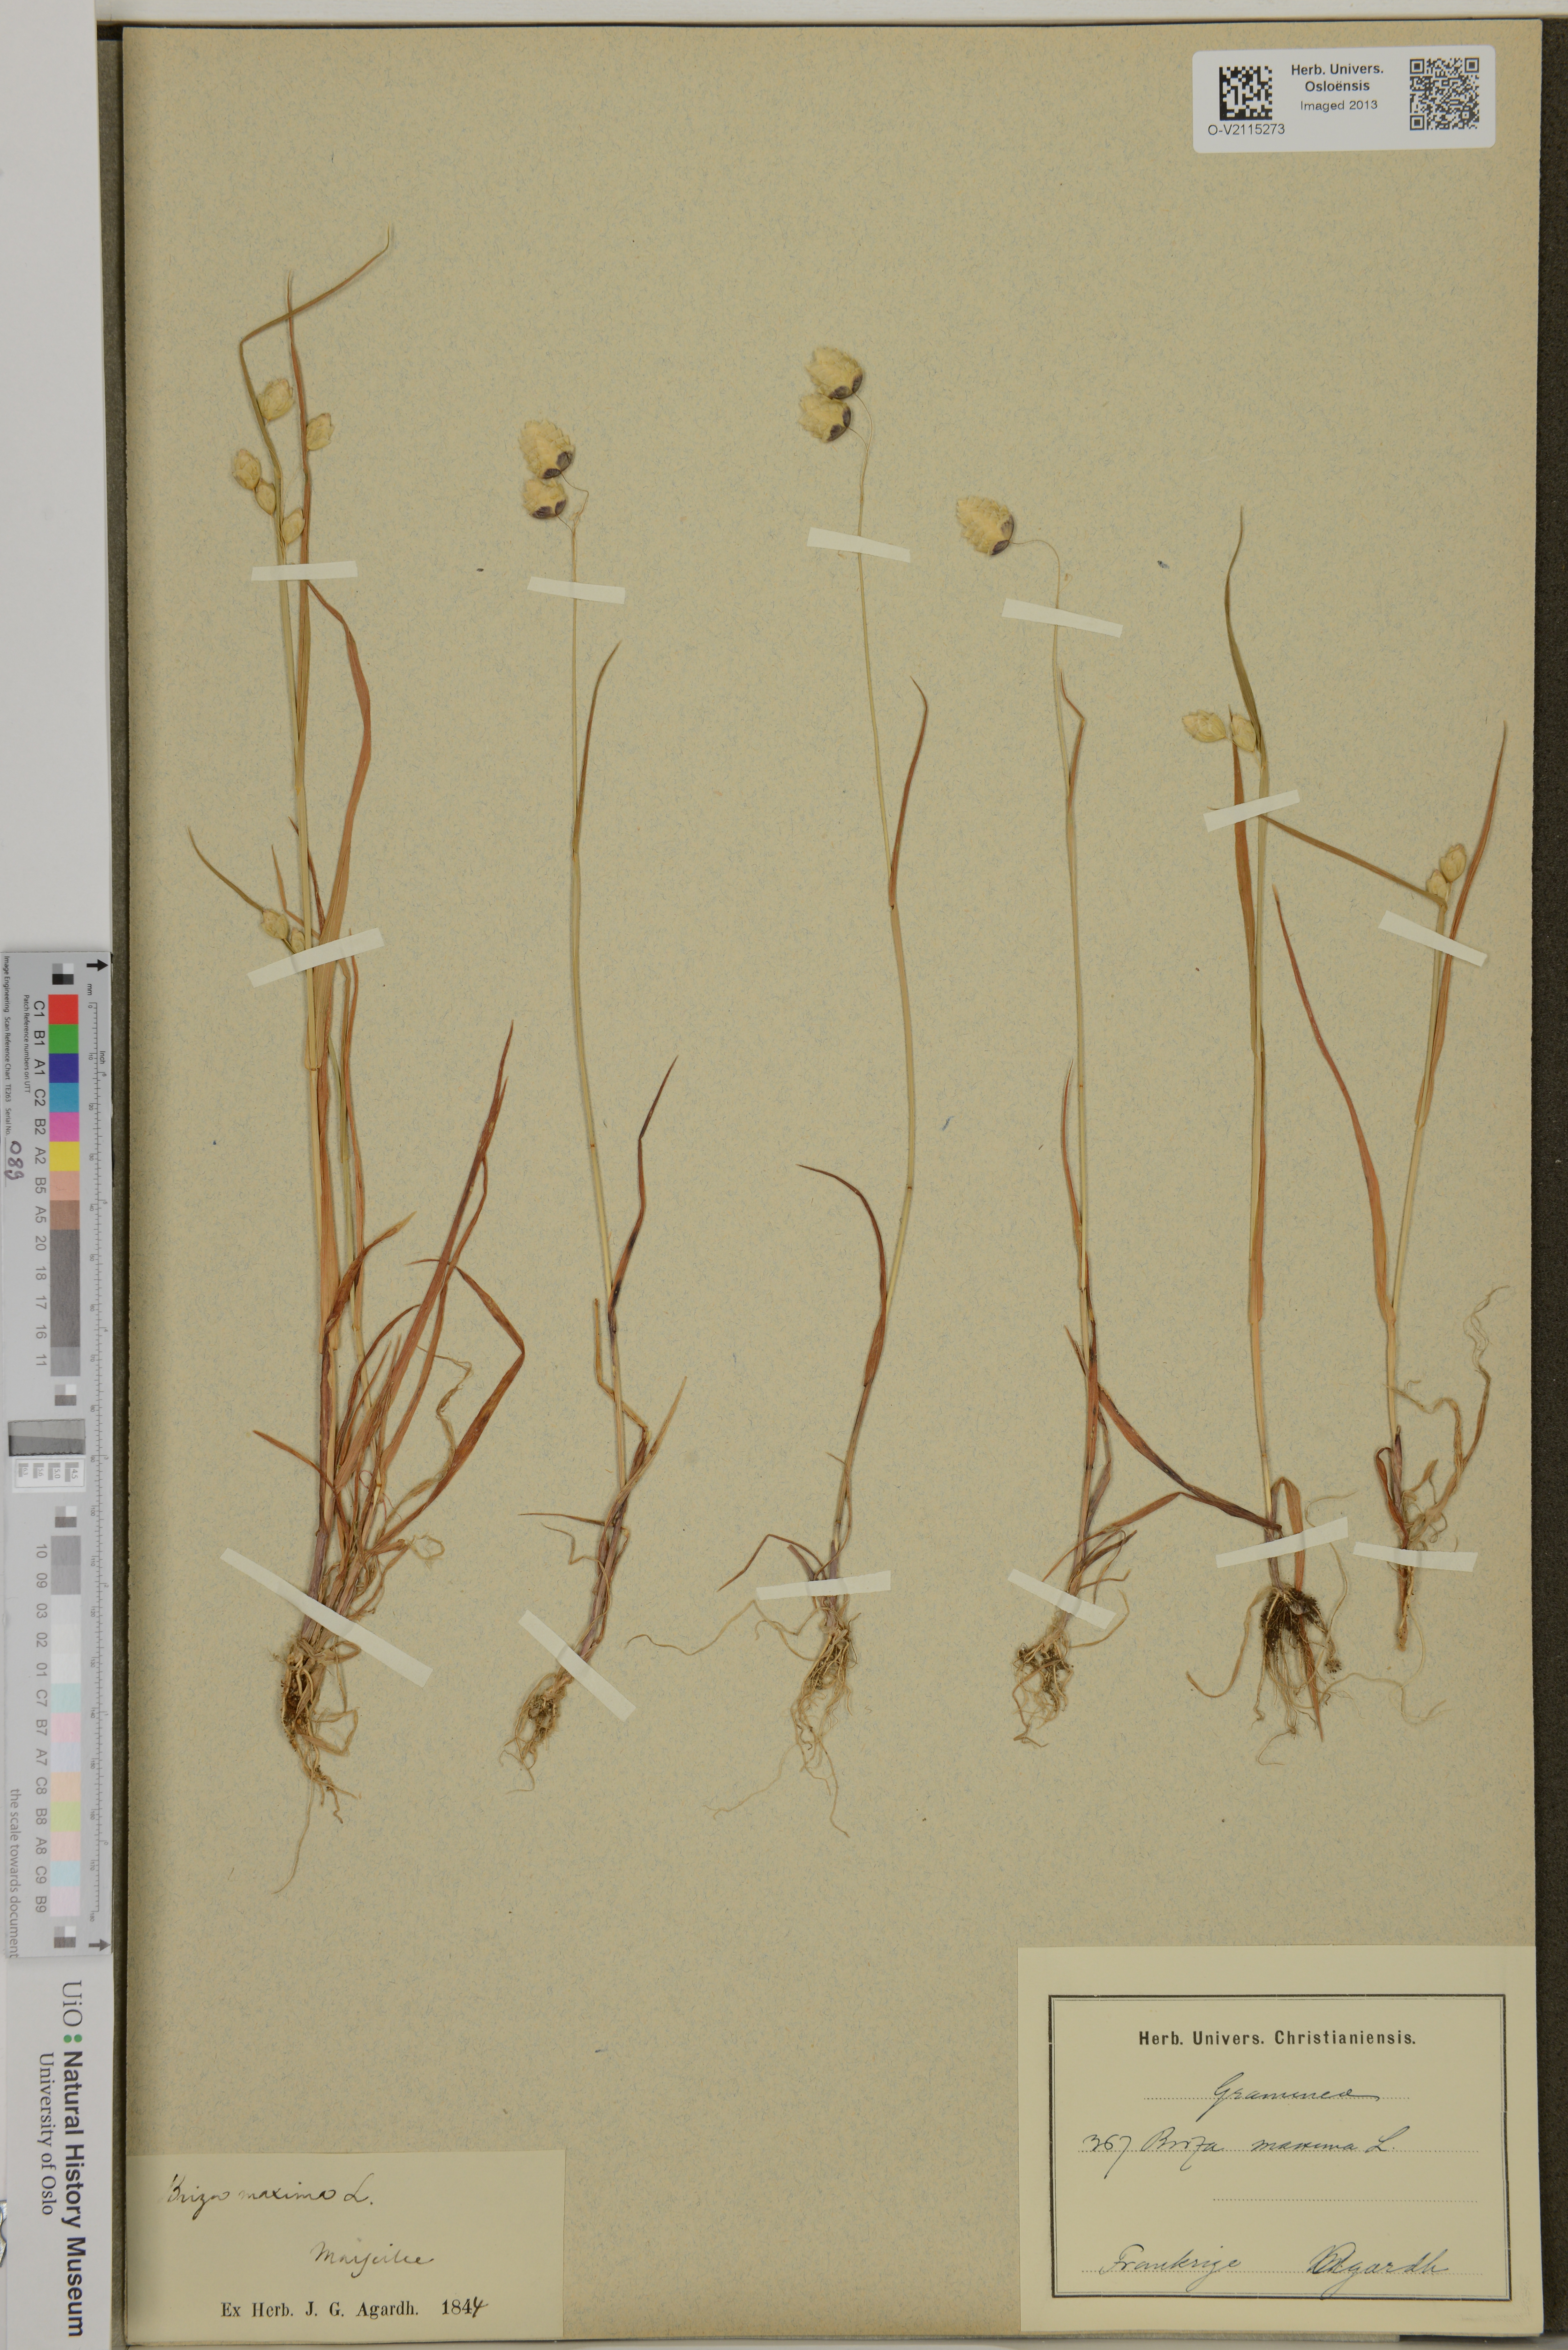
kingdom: Plantae
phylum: Tracheophyta
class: Liliopsida
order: Poales
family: Poaceae
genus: Briza
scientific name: Briza maxima
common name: Big quakinggrass
